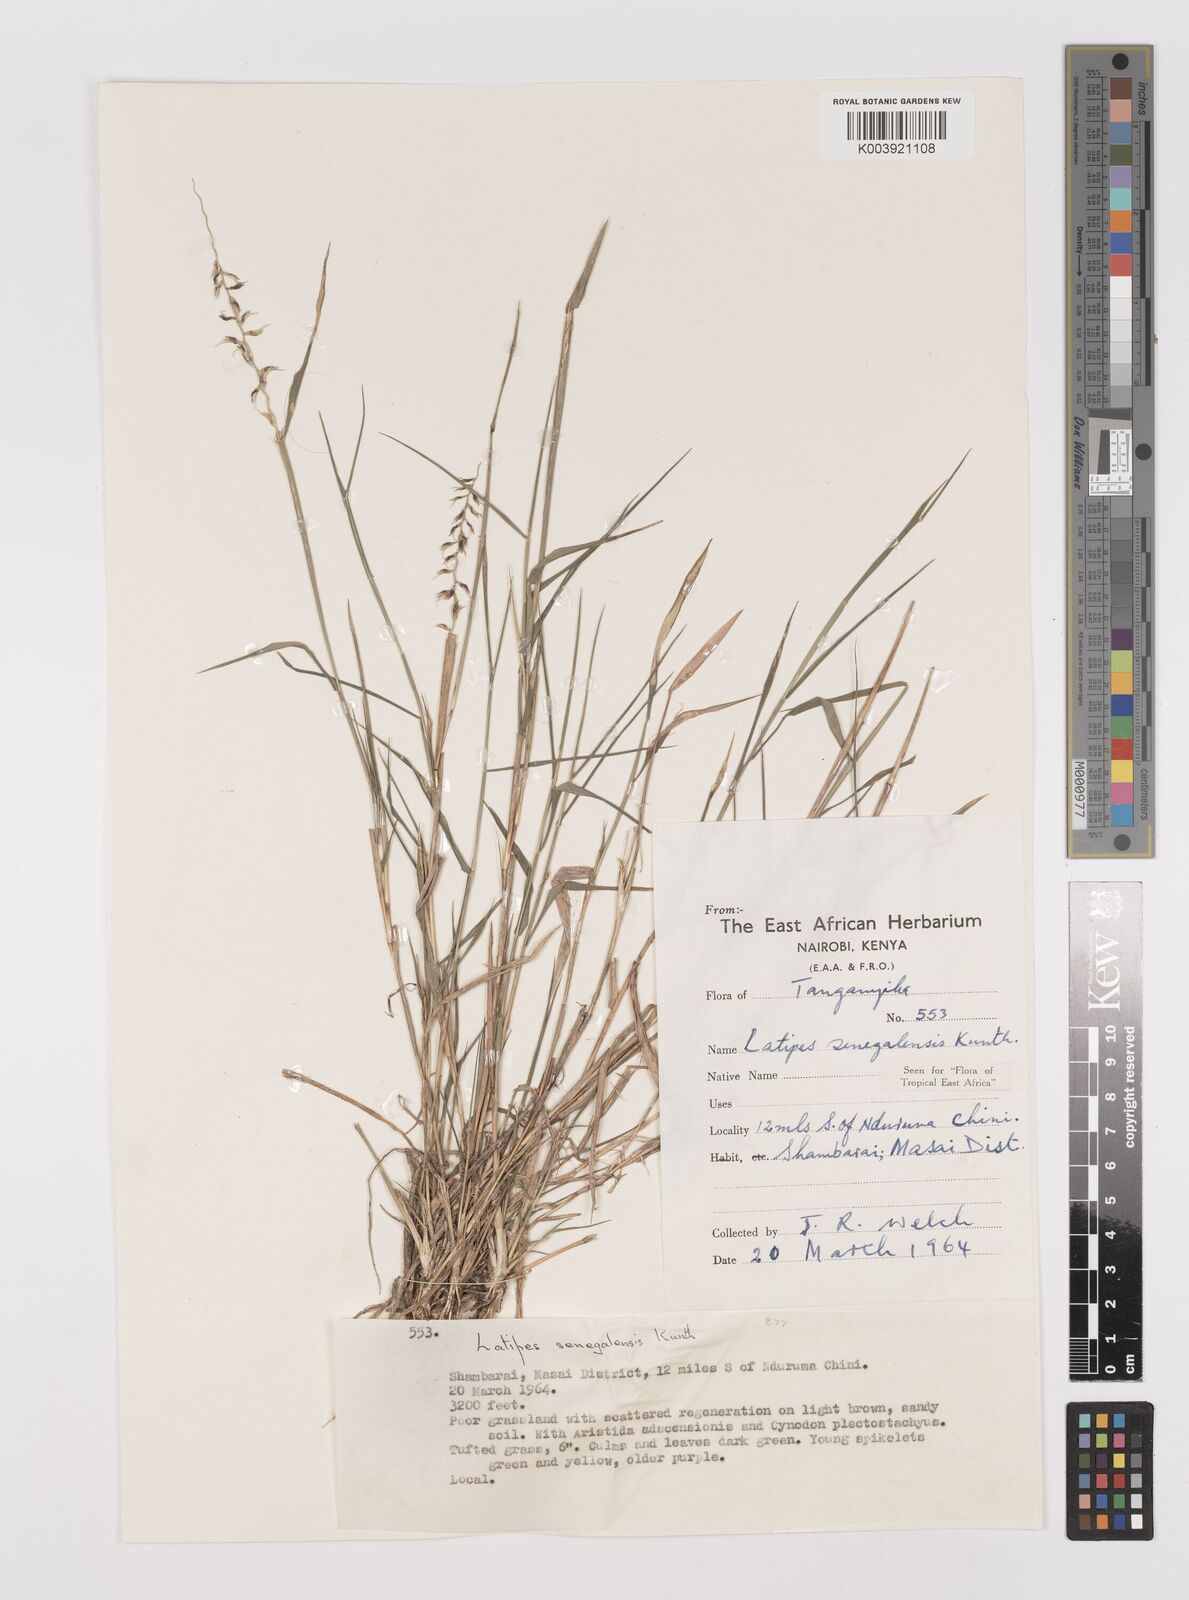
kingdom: Plantae
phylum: Tracheophyta
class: Liliopsida
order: Poales
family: Poaceae
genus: Leptothrium
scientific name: Leptothrium senegalense
